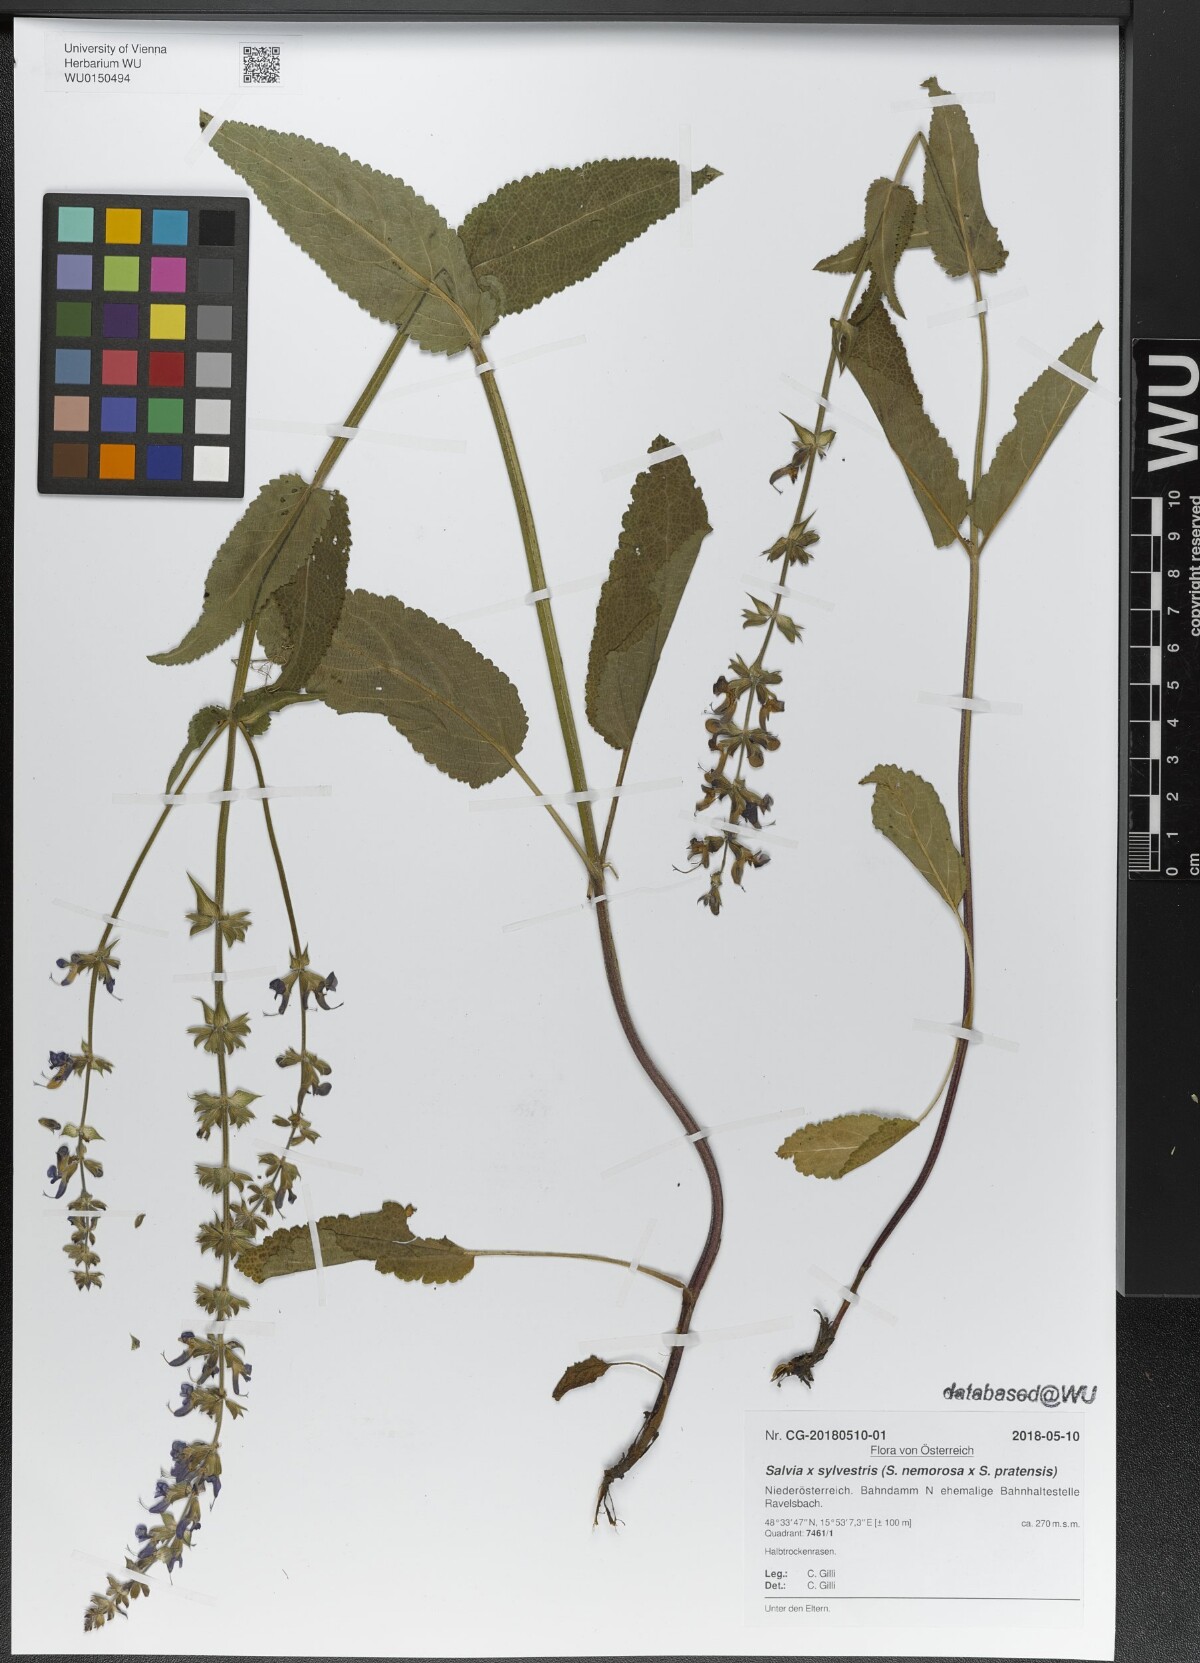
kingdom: Plantae
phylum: Tracheophyta
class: Magnoliopsida
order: Lamiales
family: Lamiaceae
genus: Salvia
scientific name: Salvia sylvestris
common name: Woodland sage
